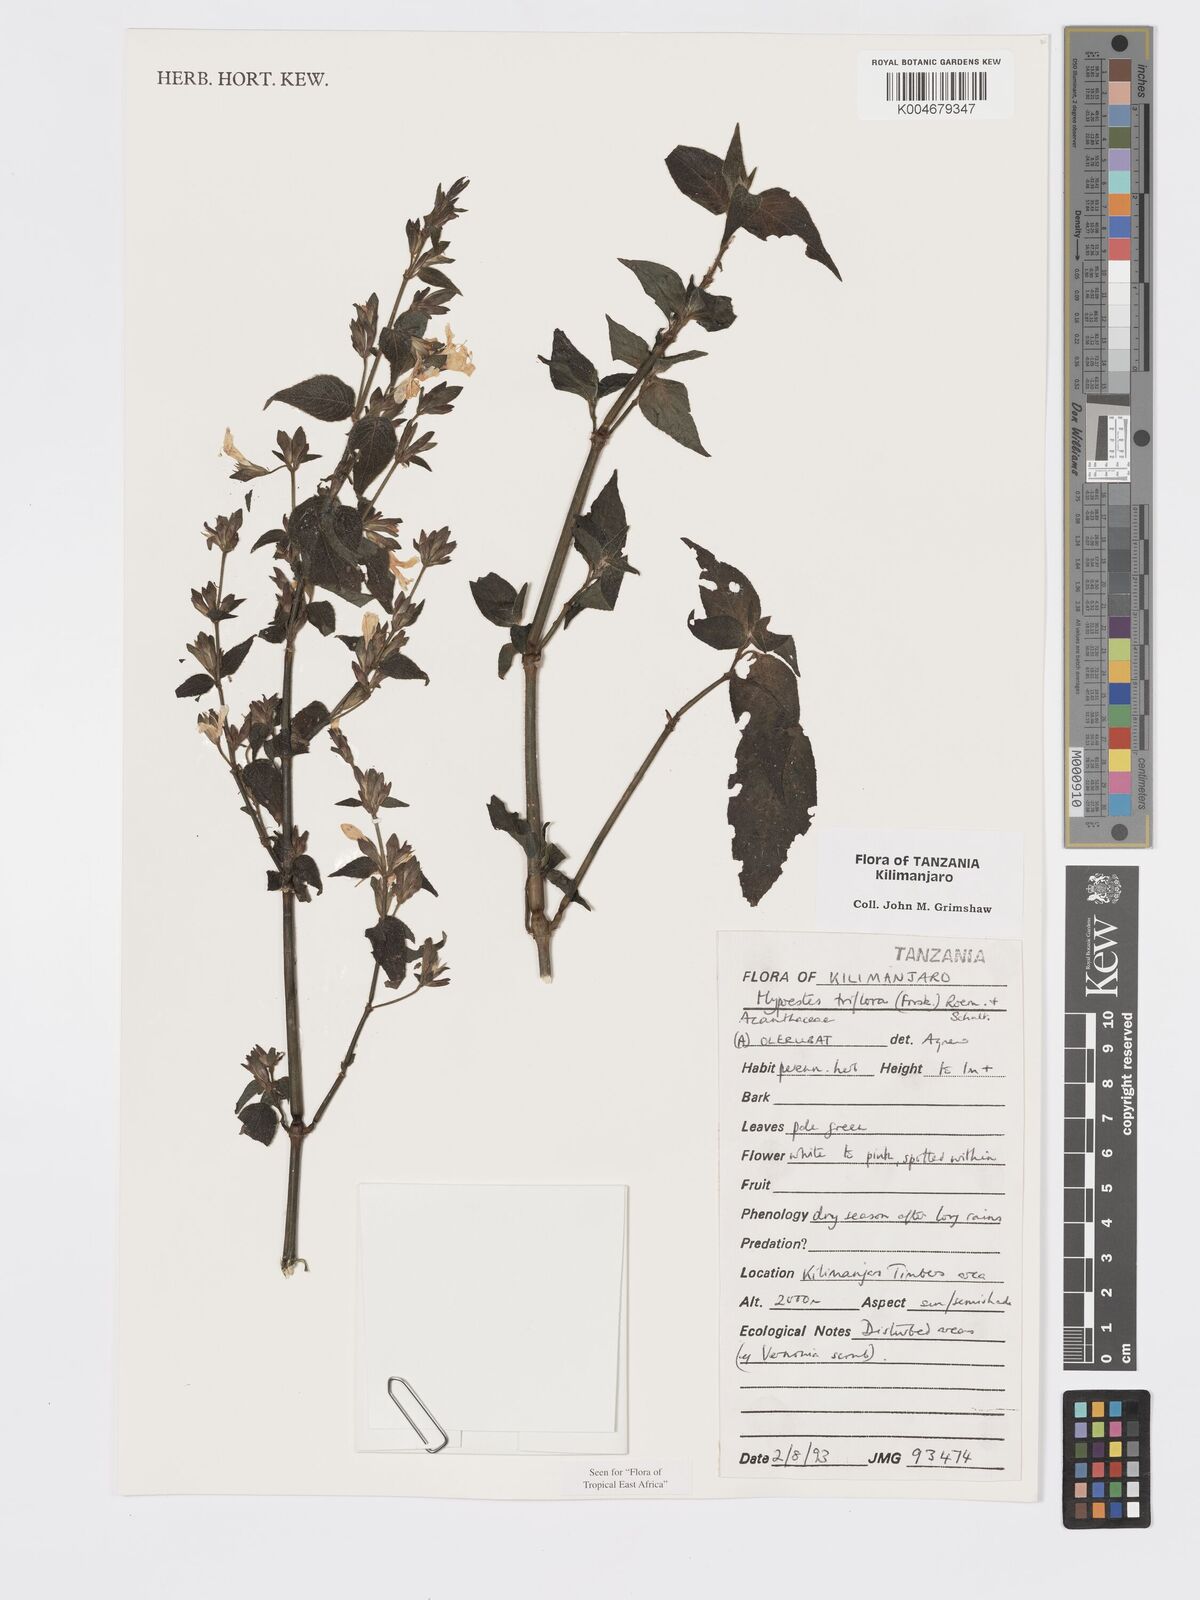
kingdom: Plantae
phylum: Tracheophyta
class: Magnoliopsida
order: Lamiales
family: Acanthaceae
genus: Hypoestes
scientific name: Hypoestes triflora
